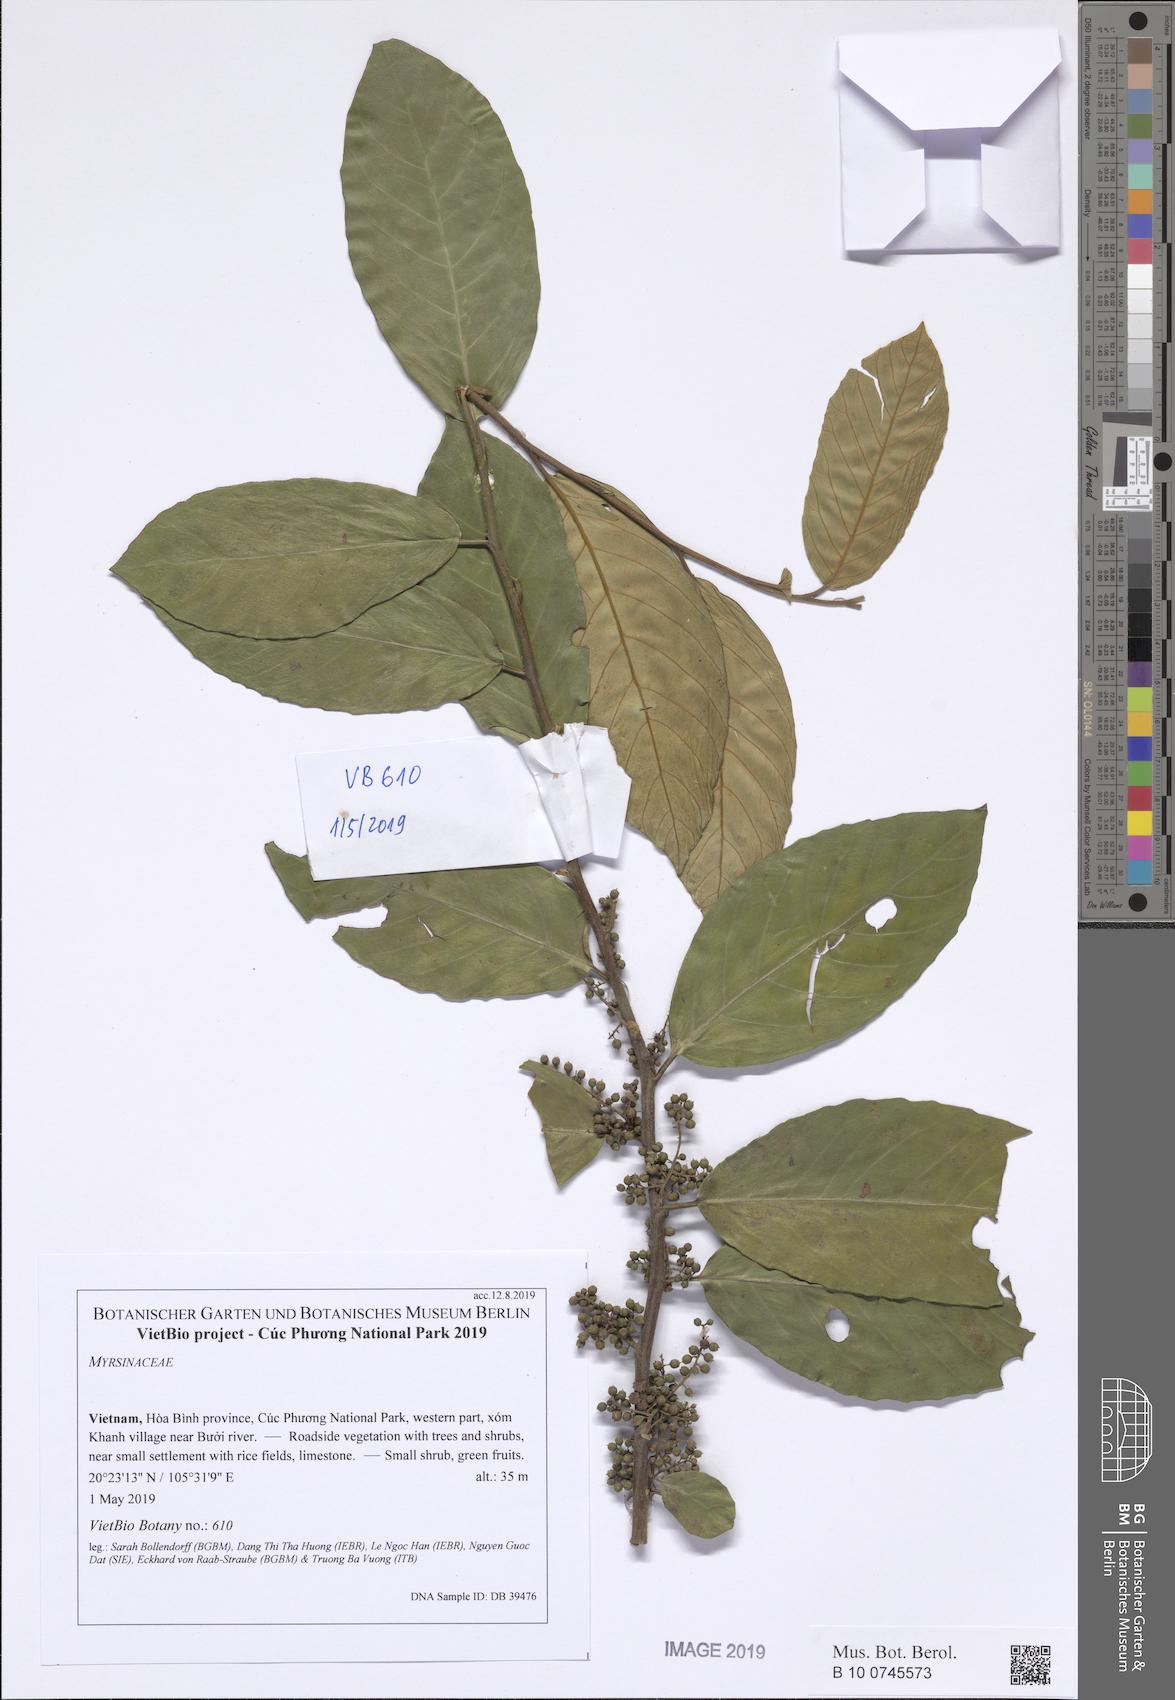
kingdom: Plantae
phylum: Tracheophyta
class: Magnoliopsida
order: Ericales
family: Primulaceae
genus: Maesa
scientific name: Maesa montana
